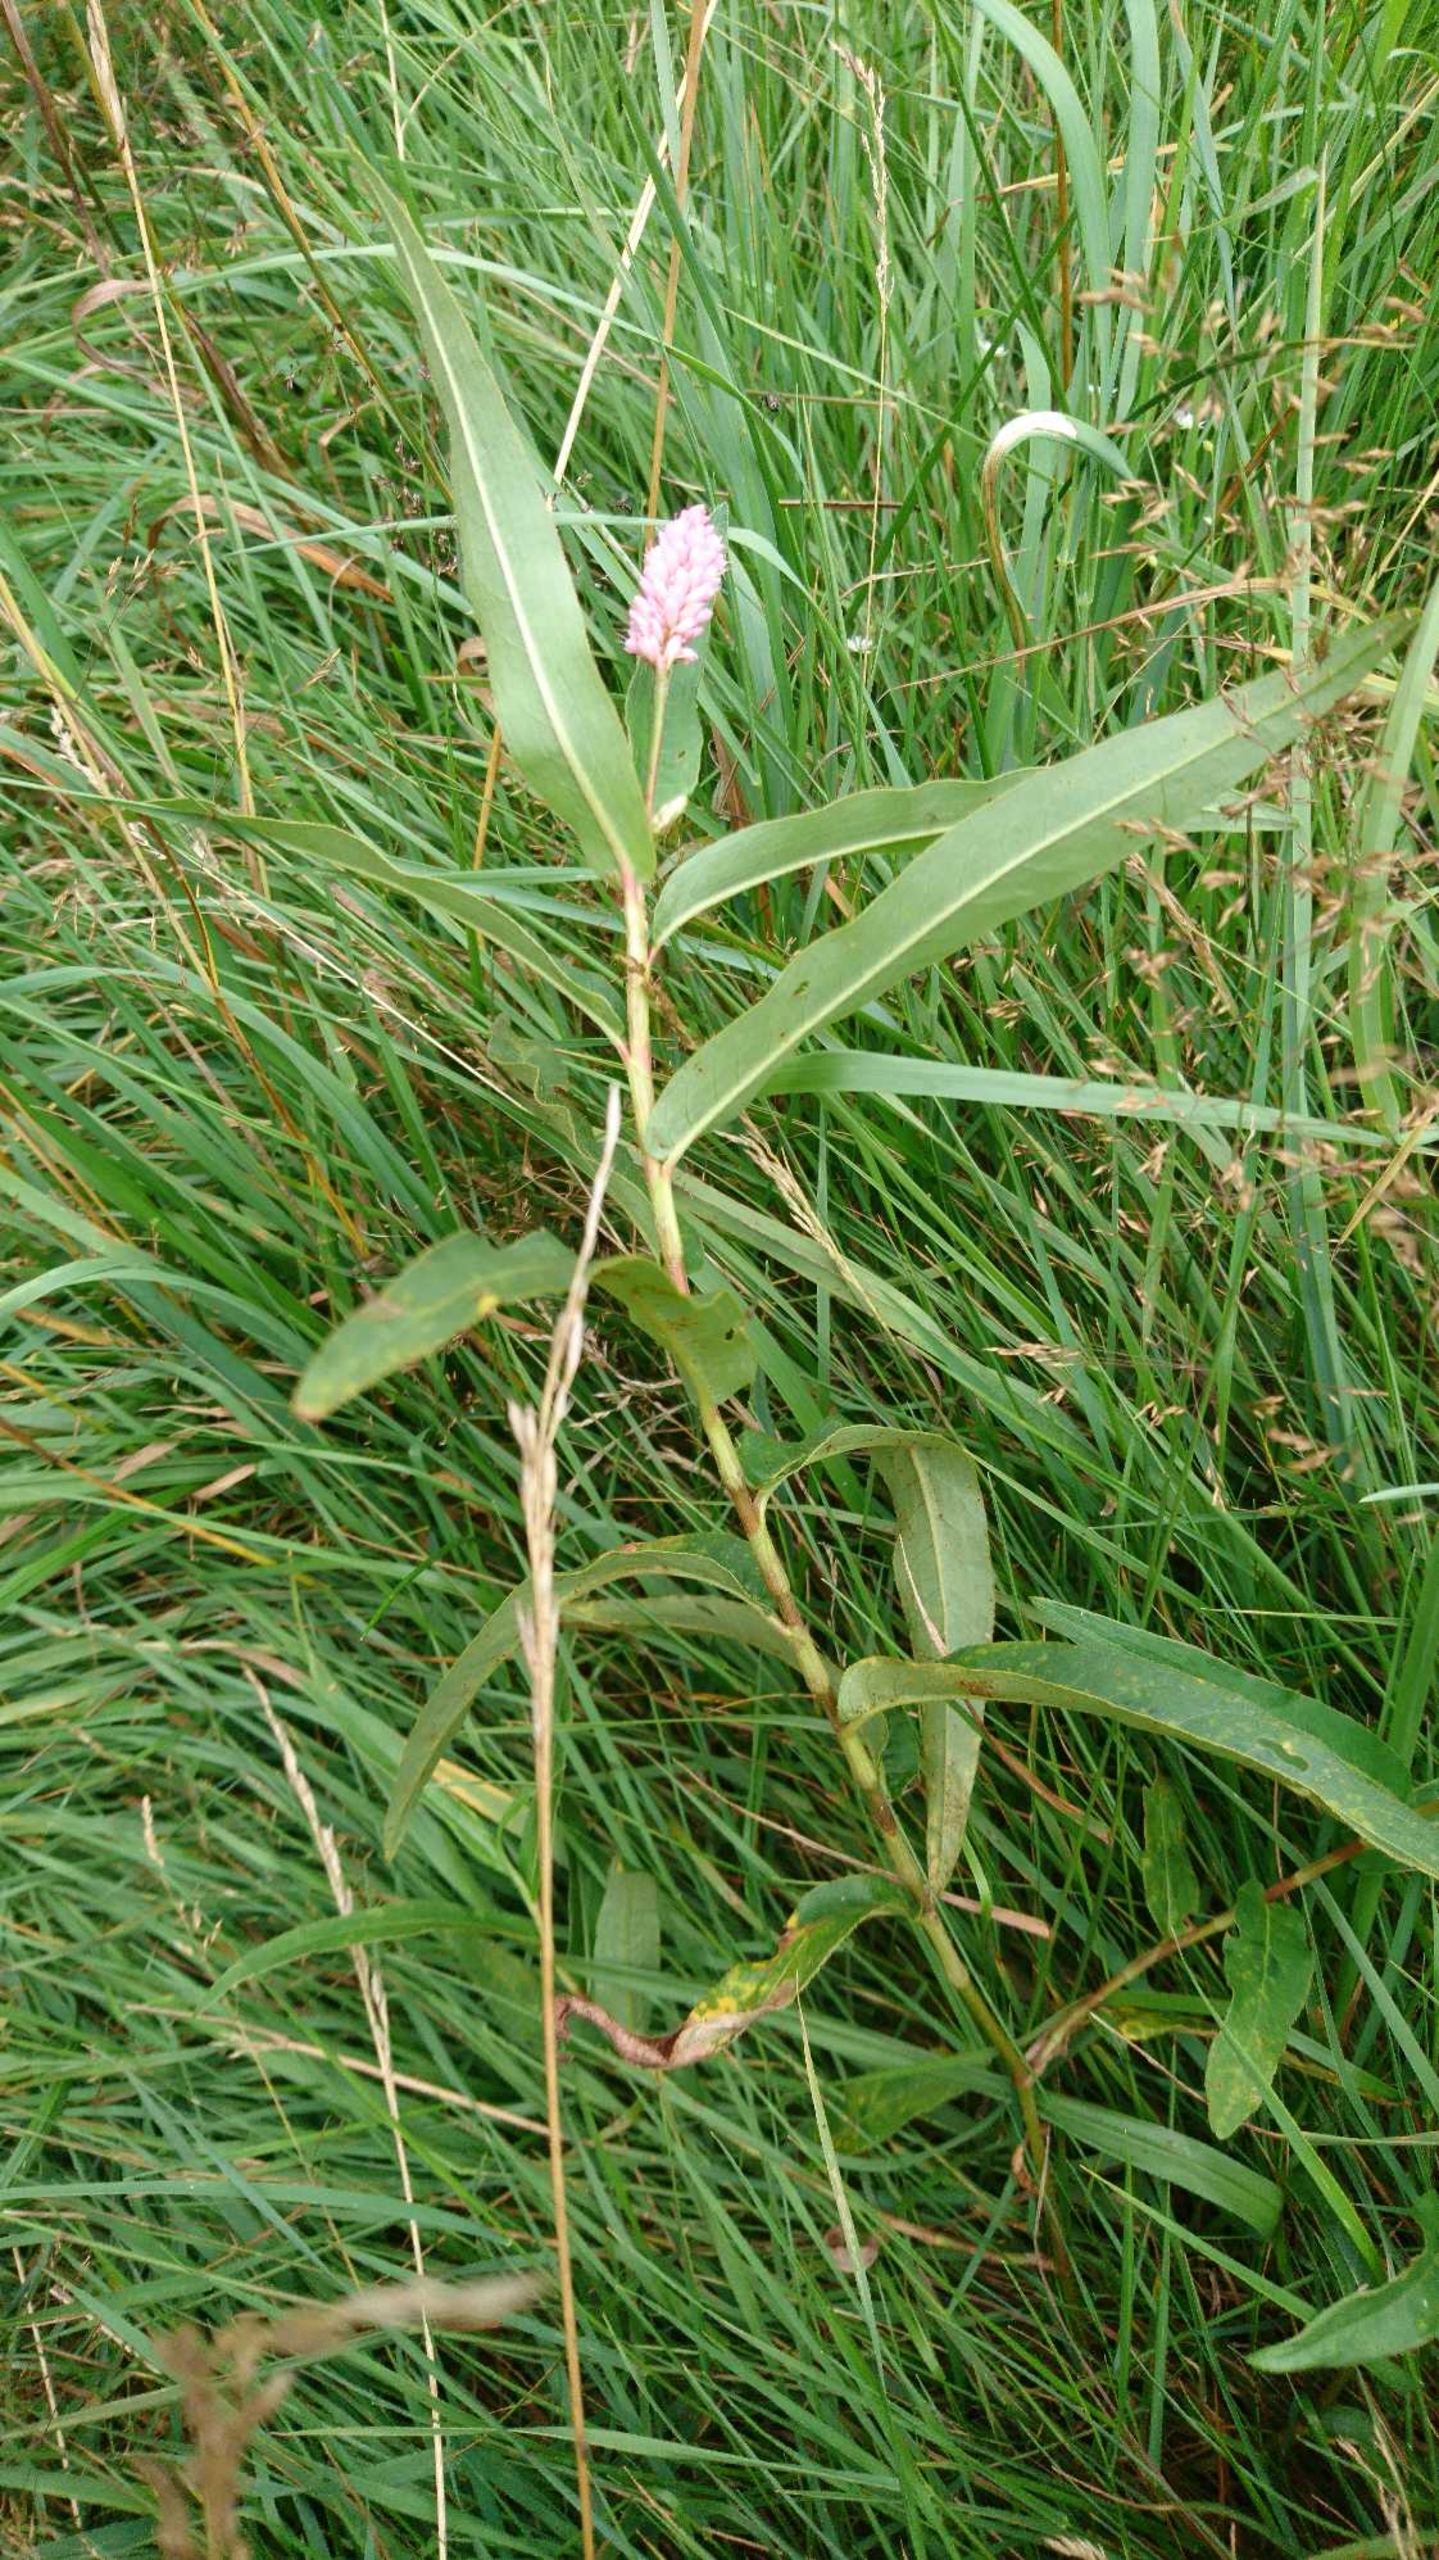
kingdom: Plantae
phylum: Tracheophyta
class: Magnoliopsida
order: Caryophyllales
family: Polygonaceae
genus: Persicaria
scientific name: Persicaria amphibia
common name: Vand-pileurt
